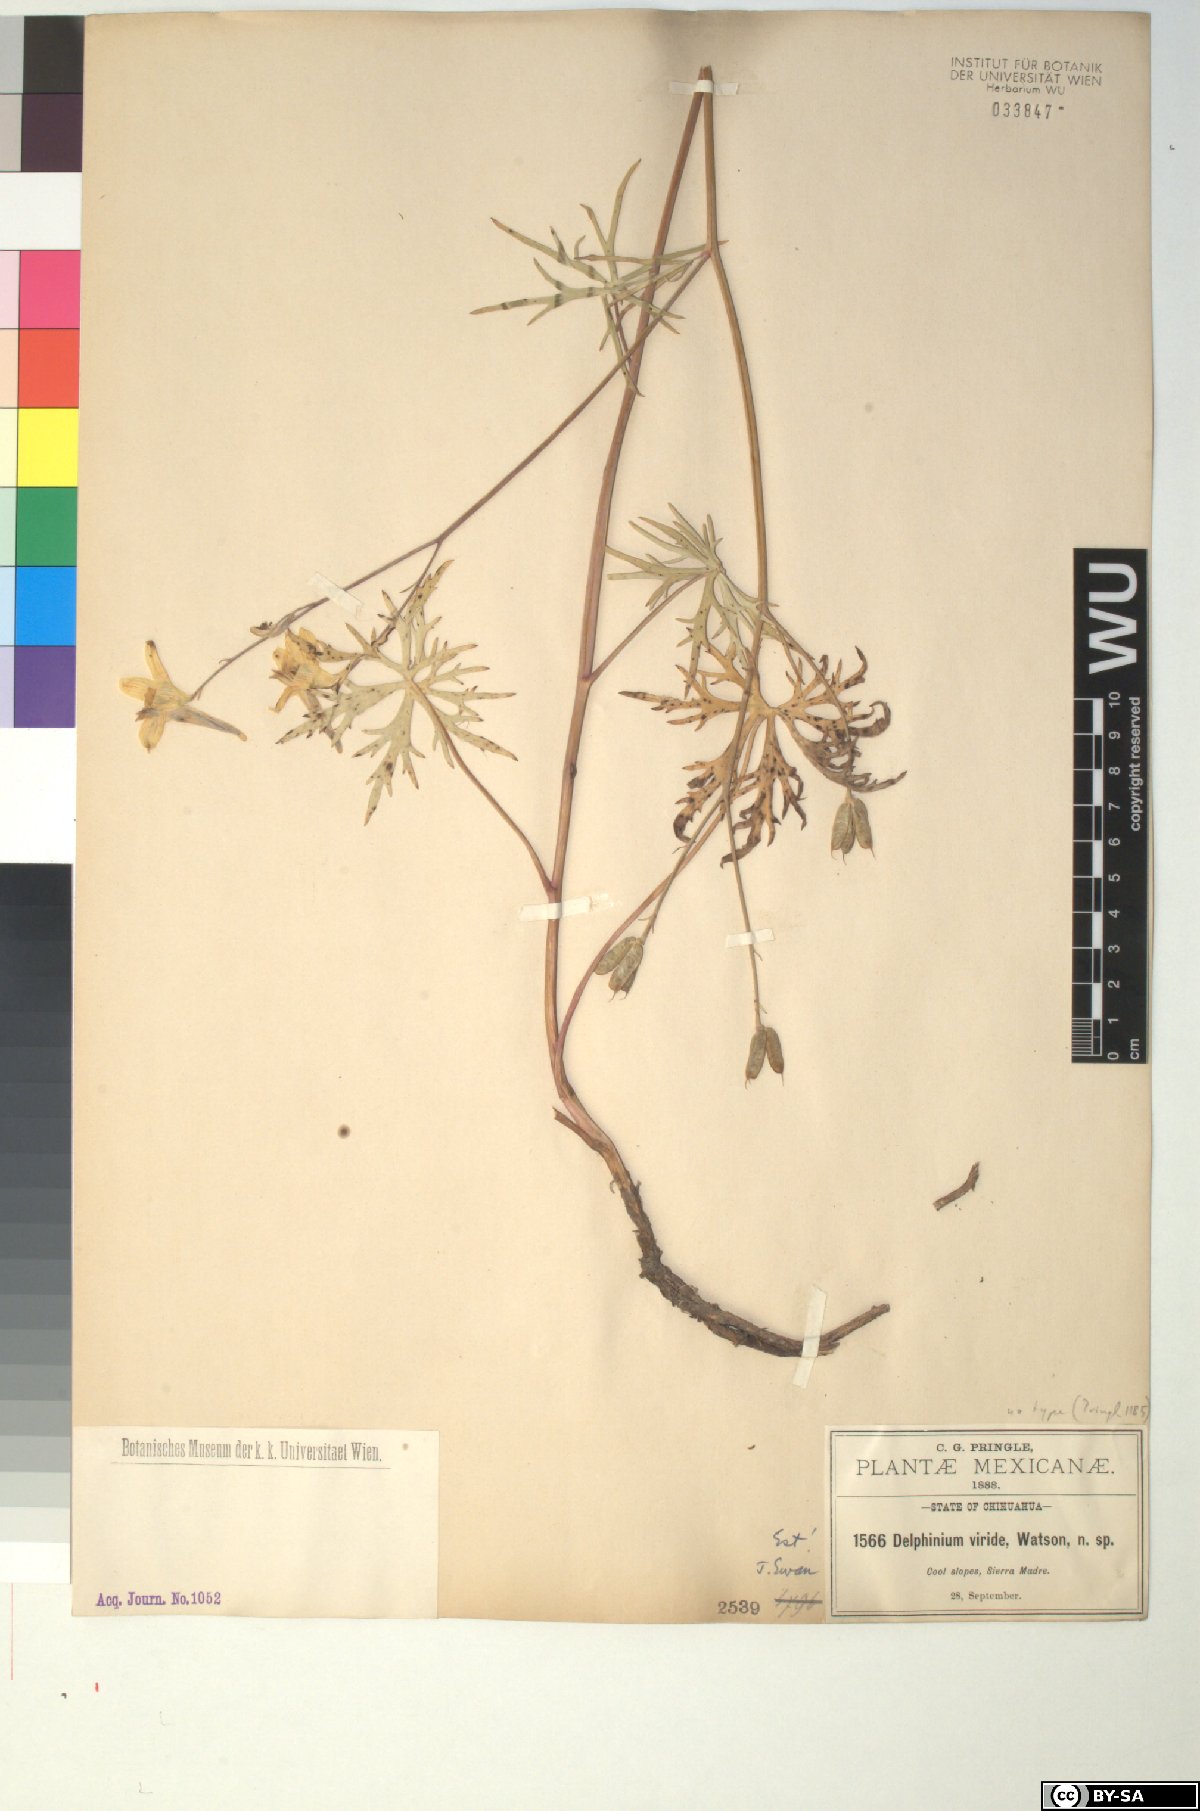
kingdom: Plantae
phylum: Tracheophyta
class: Magnoliopsida
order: Ranunculales
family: Ranunculaceae
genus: Delphinium
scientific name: Delphinium viride
